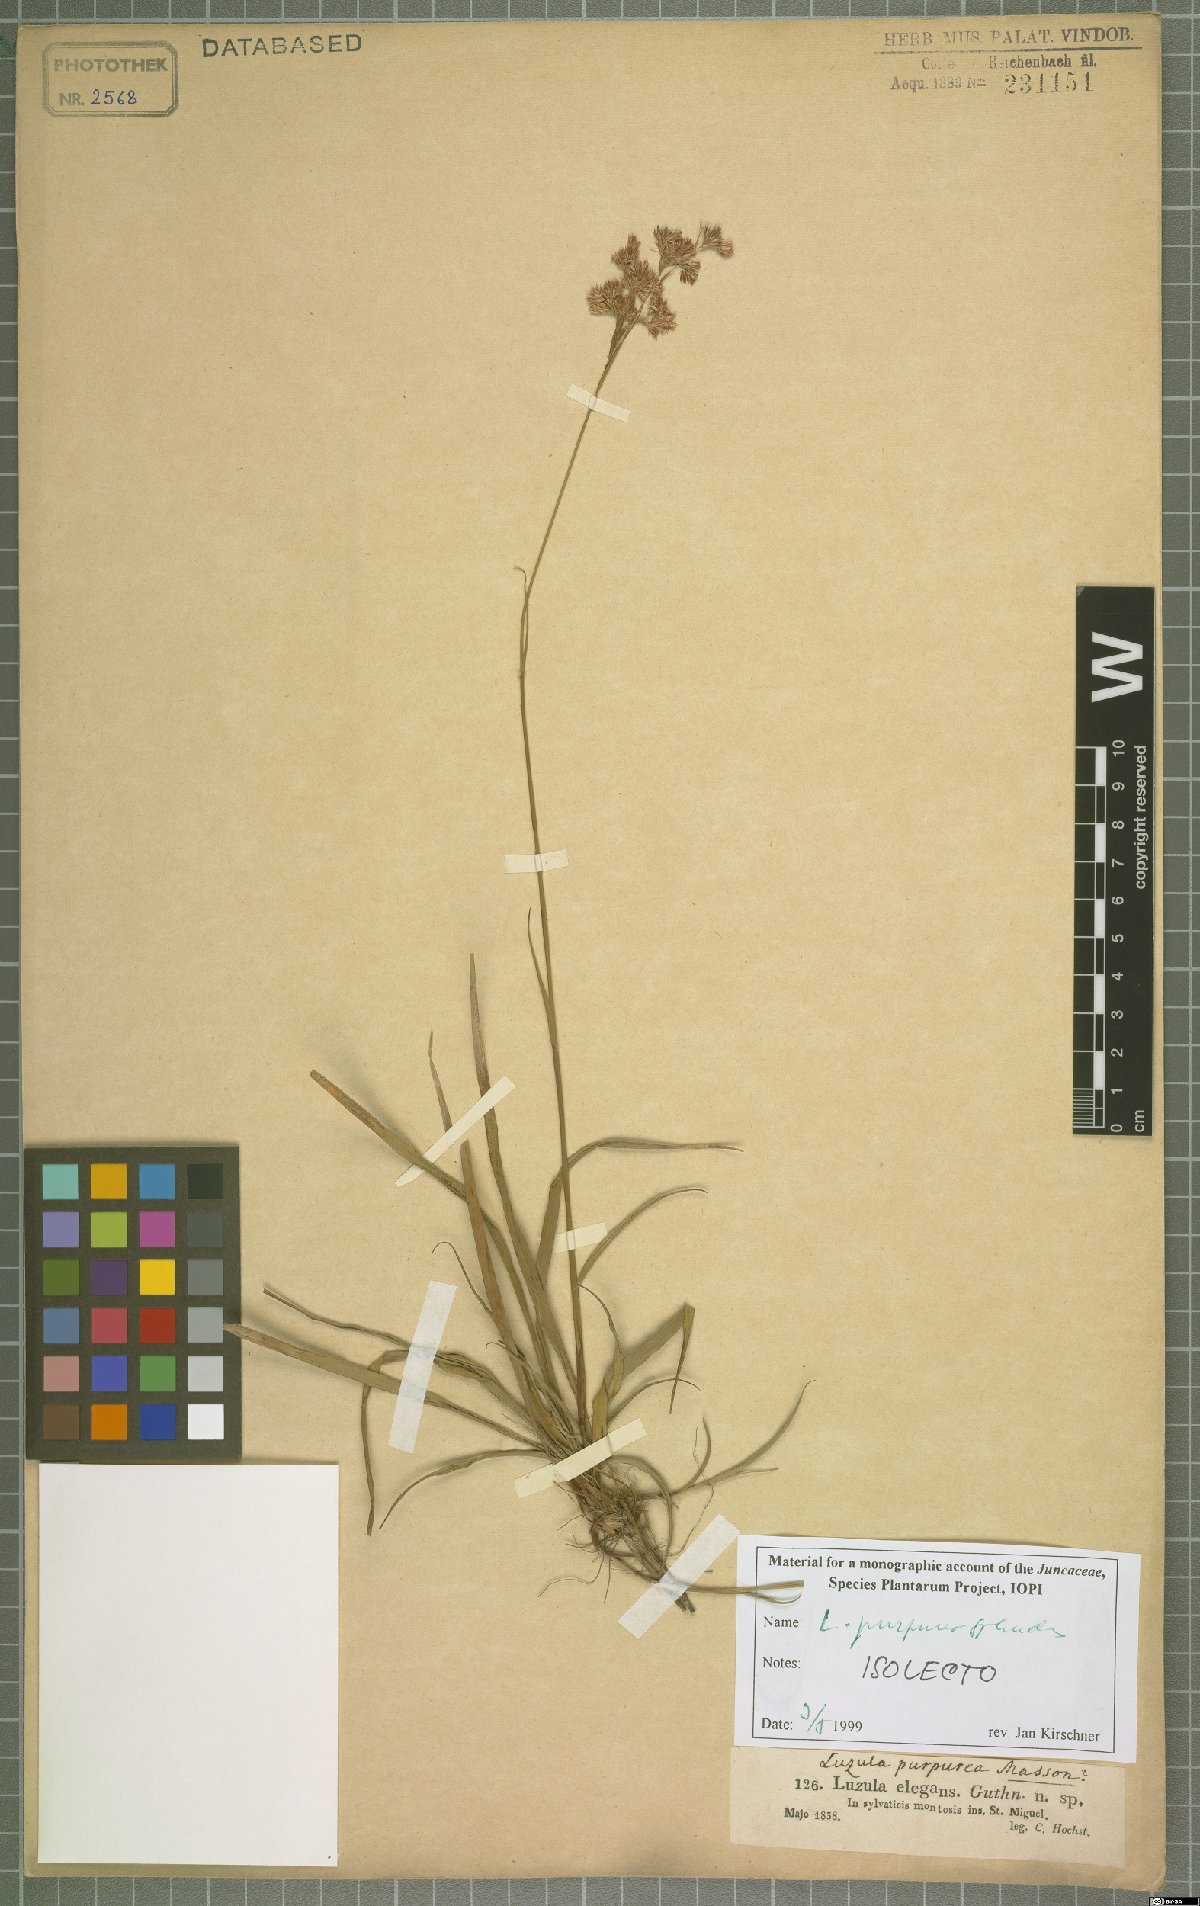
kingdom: Plantae
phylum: Tracheophyta
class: Liliopsida
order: Poales
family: Juncaceae
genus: Luzula
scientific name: Luzula purpureosplendens
